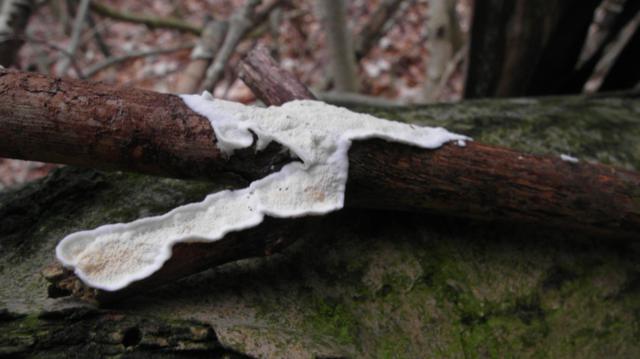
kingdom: Fungi
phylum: Basidiomycota
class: Agaricomycetes
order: Polyporales
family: Irpicaceae
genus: Byssomerulius
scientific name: Byssomerulius corium
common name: læder-åresvamp
